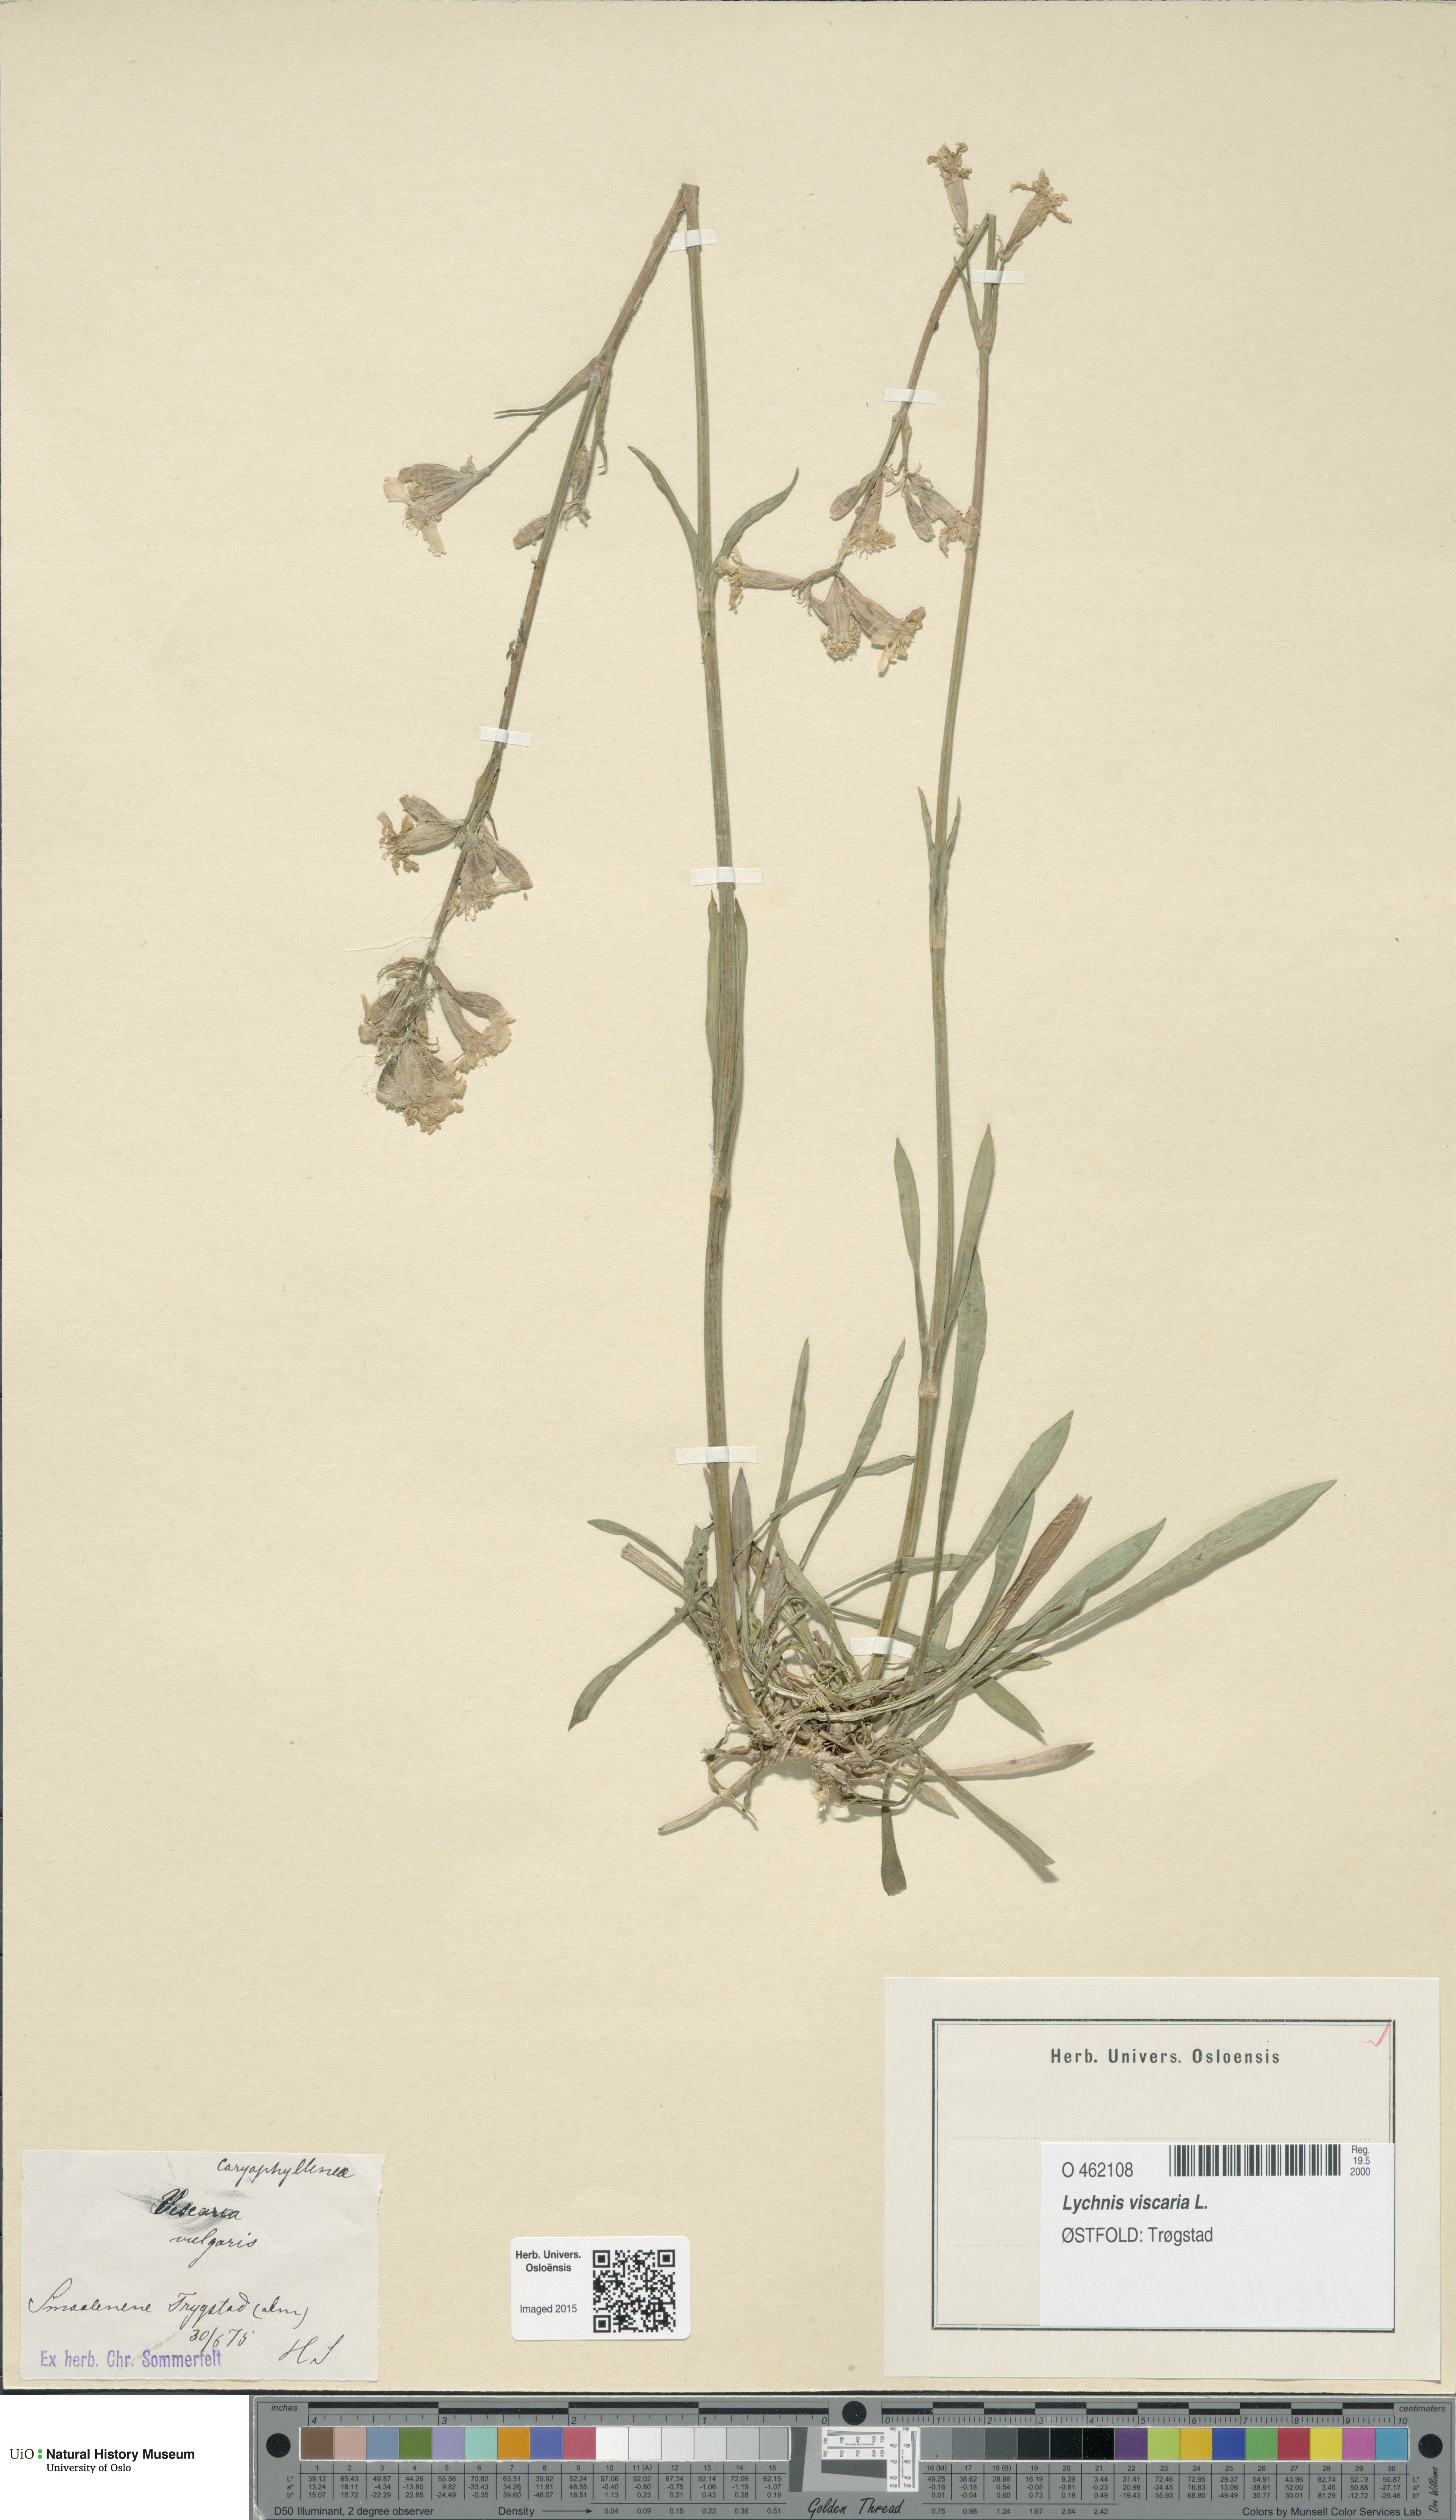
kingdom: Plantae
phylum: Tracheophyta
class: Magnoliopsida
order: Caryophyllales
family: Caryophyllaceae
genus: Viscaria
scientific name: Viscaria vulgaris
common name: Clammy campion
